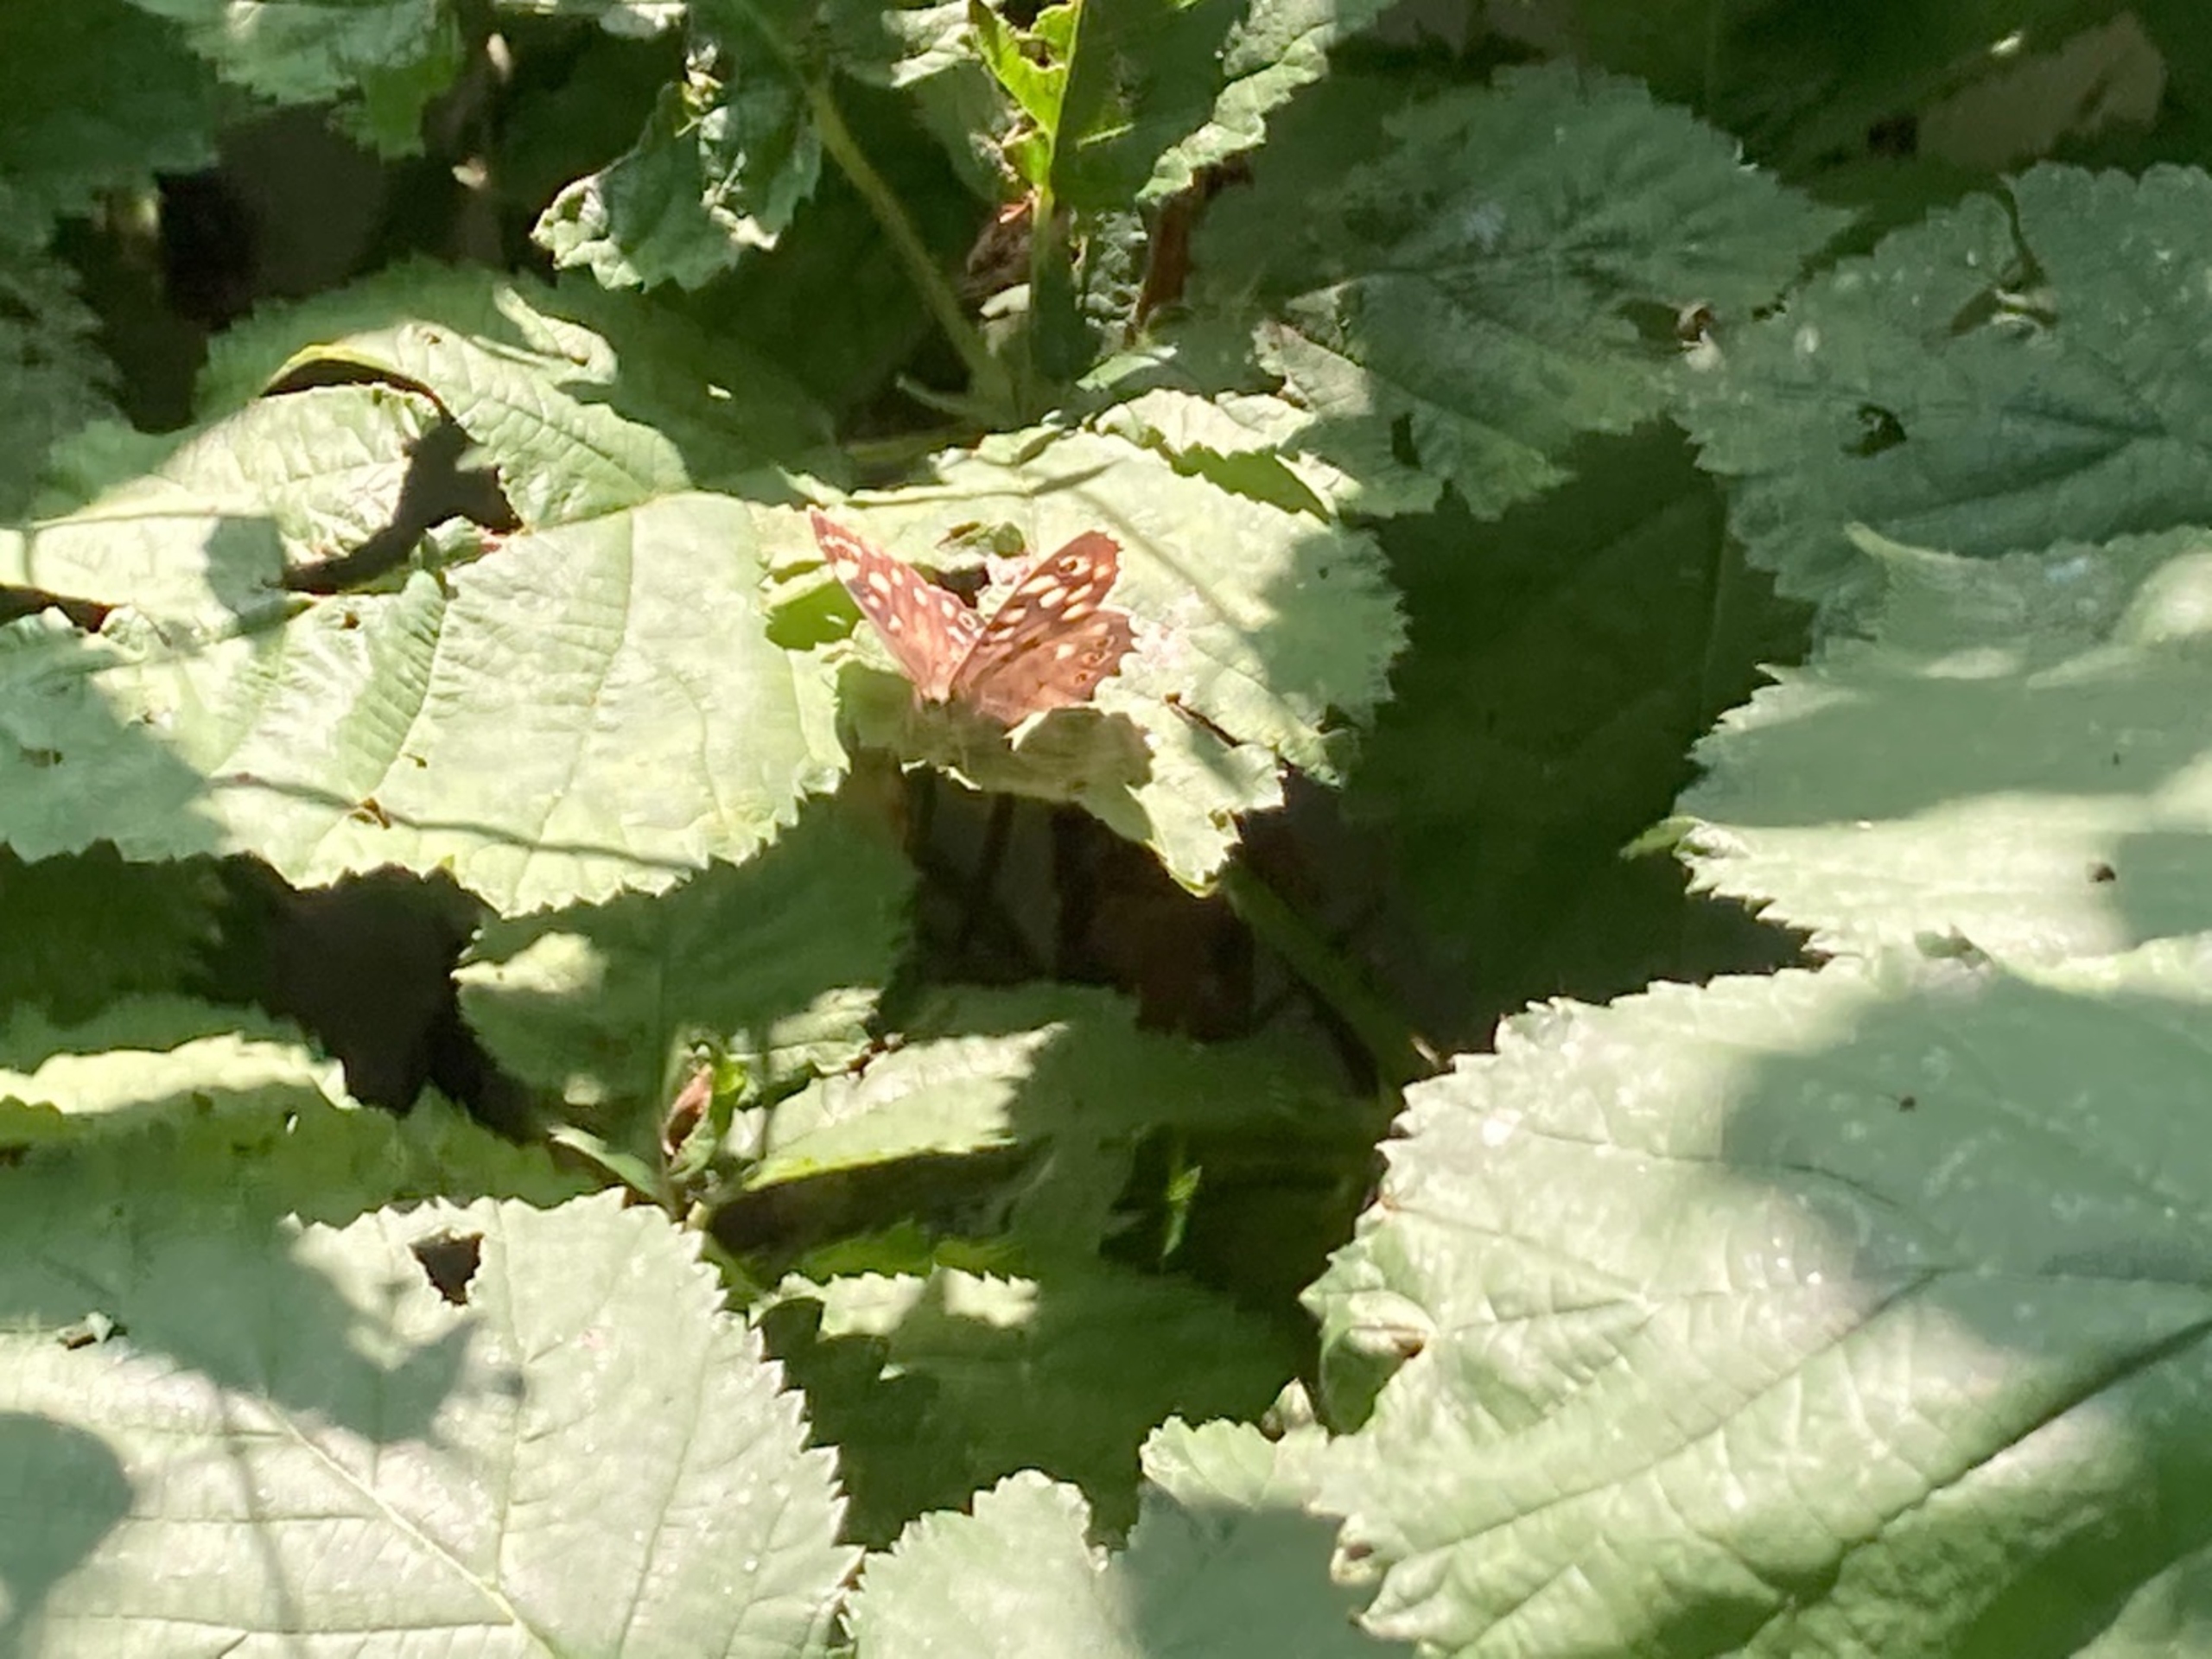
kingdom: Animalia
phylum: Arthropoda
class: Insecta
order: Lepidoptera
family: Nymphalidae
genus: Pararge
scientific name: Pararge aegeria
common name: Skovrandøje
